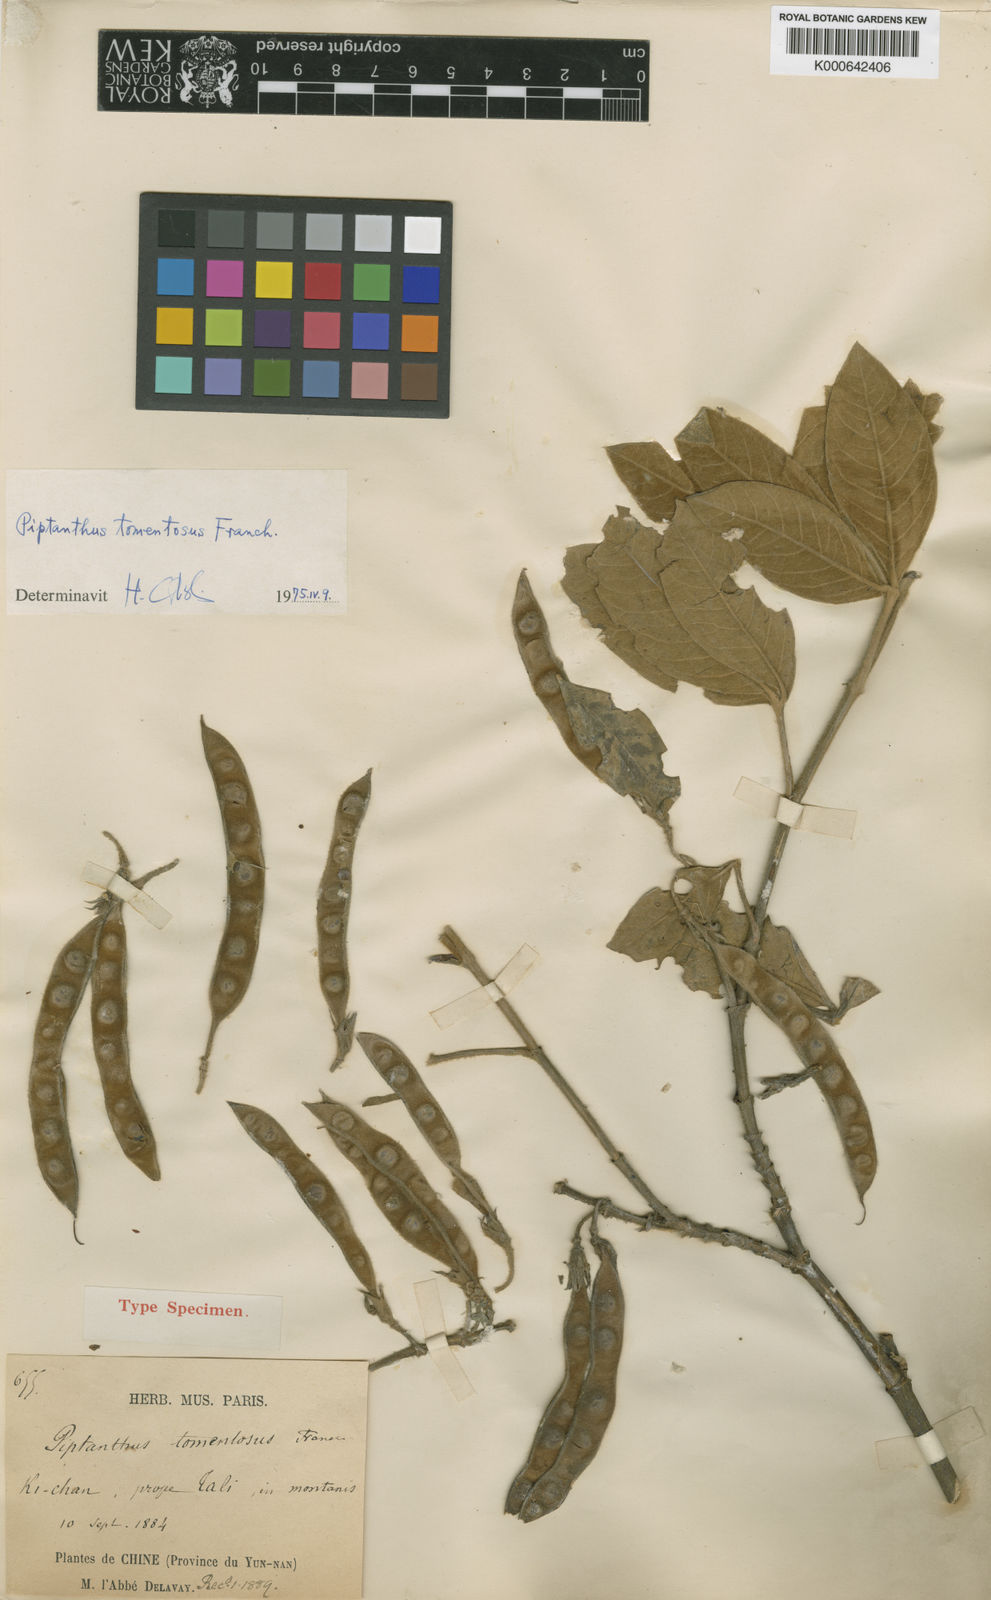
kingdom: Plantae
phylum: Tracheophyta
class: Magnoliopsida
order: Fabales
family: Fabaceae
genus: Piptanthus
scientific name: Piptanthus tomentosus
